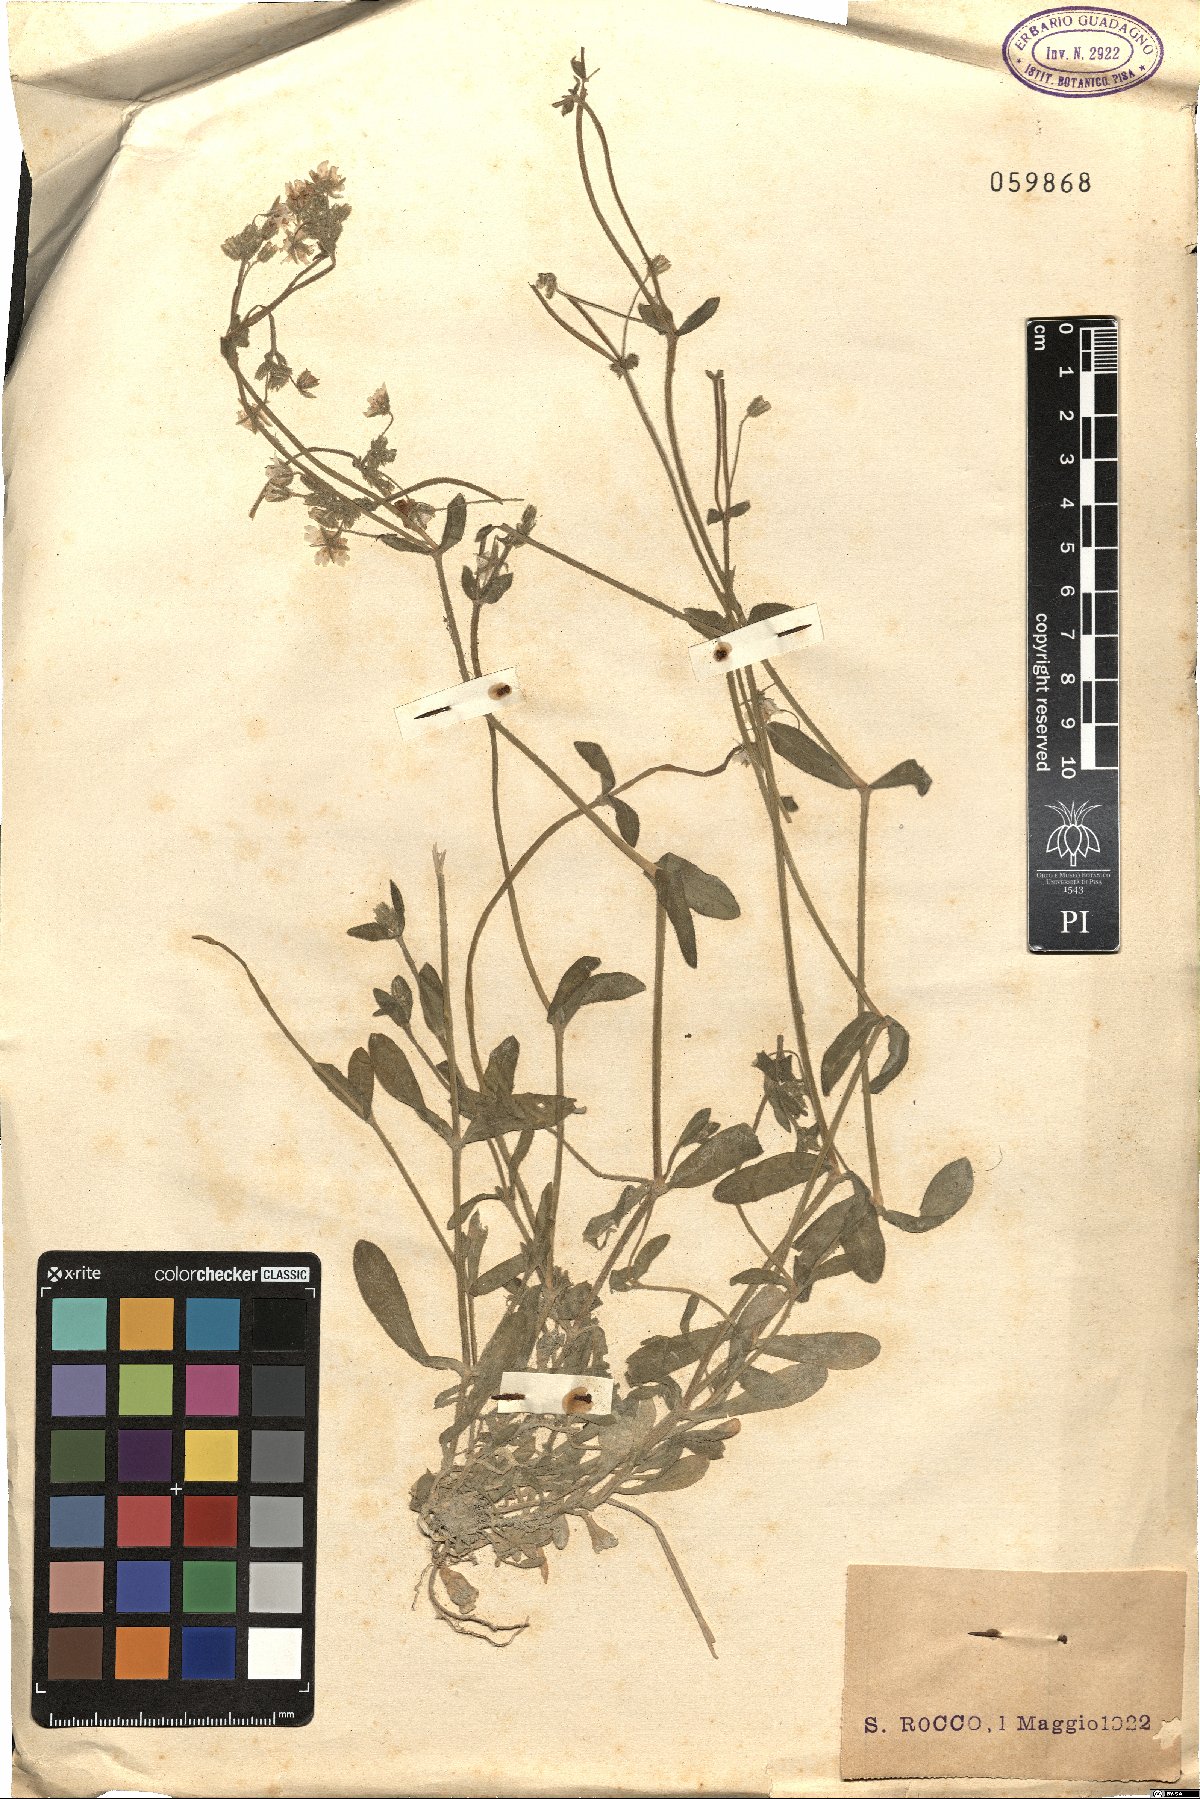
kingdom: Plantae
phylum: Tracheophyta
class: Magnoliopsida
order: Caryophyllales
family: Caryophyllaceae
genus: Cerastium
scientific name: Cerastium
